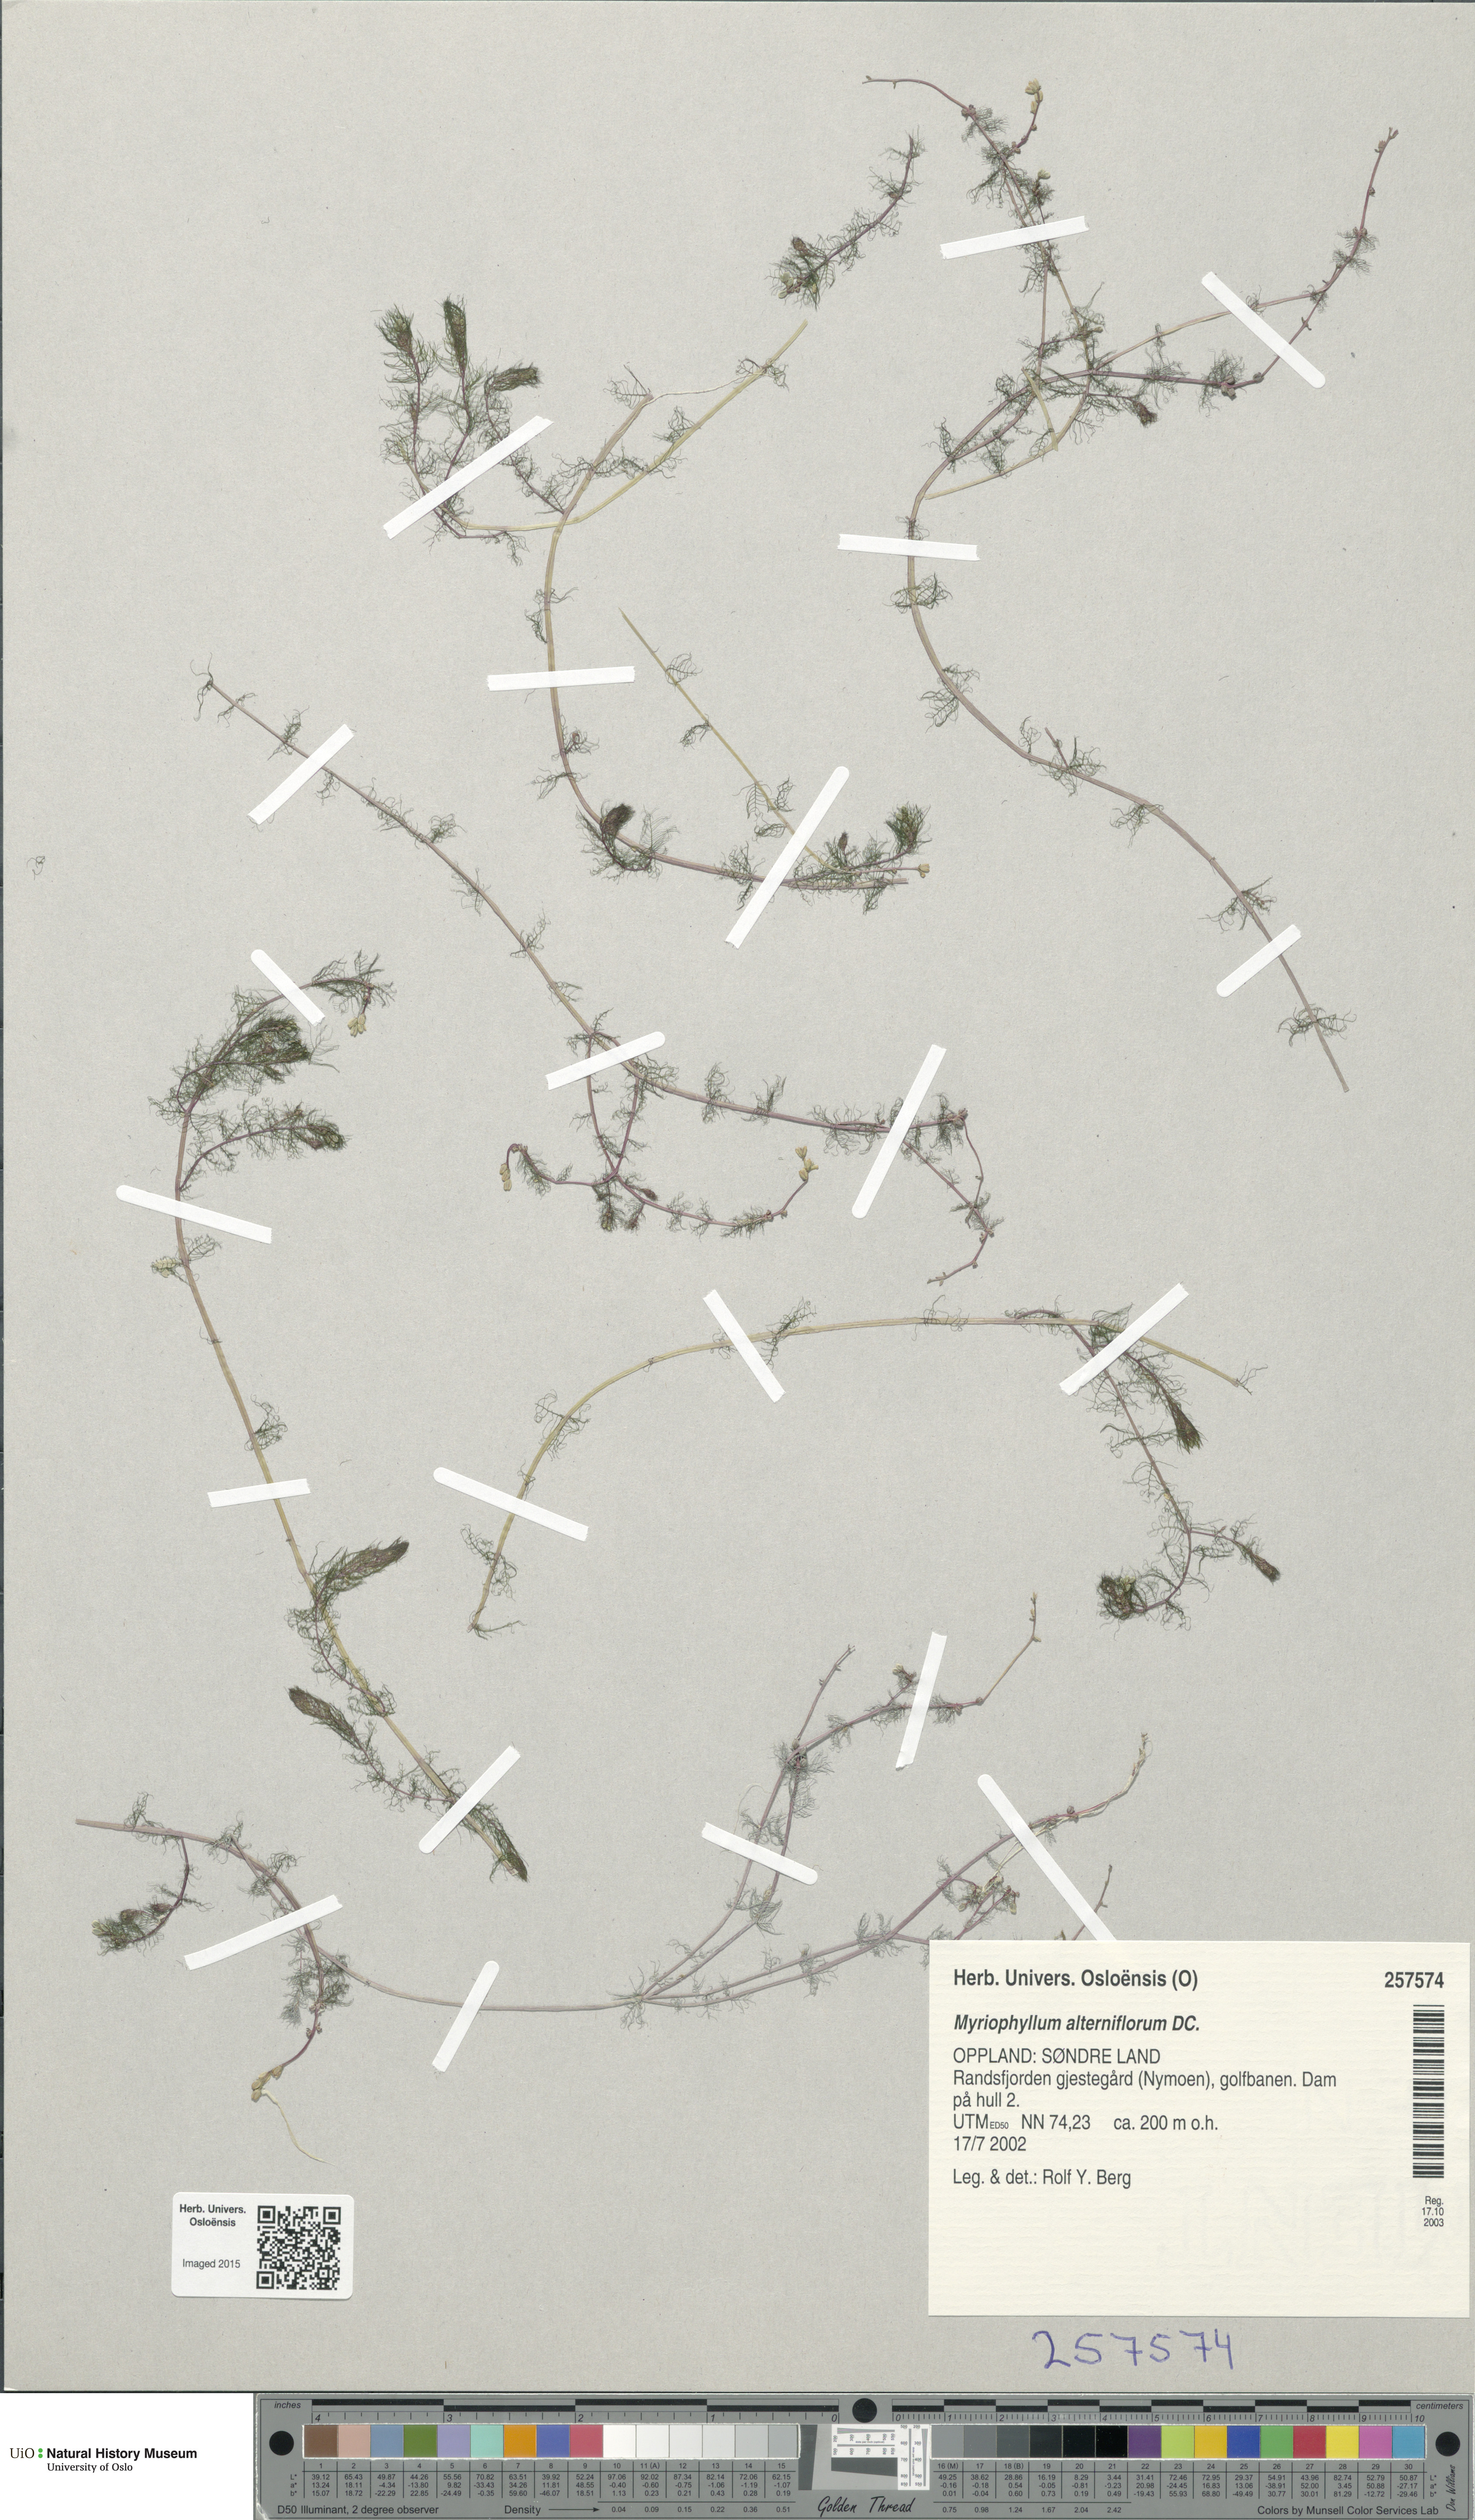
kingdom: Plantae
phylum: Tracheophyta
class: Magnoliopsida
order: Saxifragales
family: Haloragaceae
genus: Myriophyllum
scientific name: Myriophyllum alterniflorum
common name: Alternate water-milfoil
